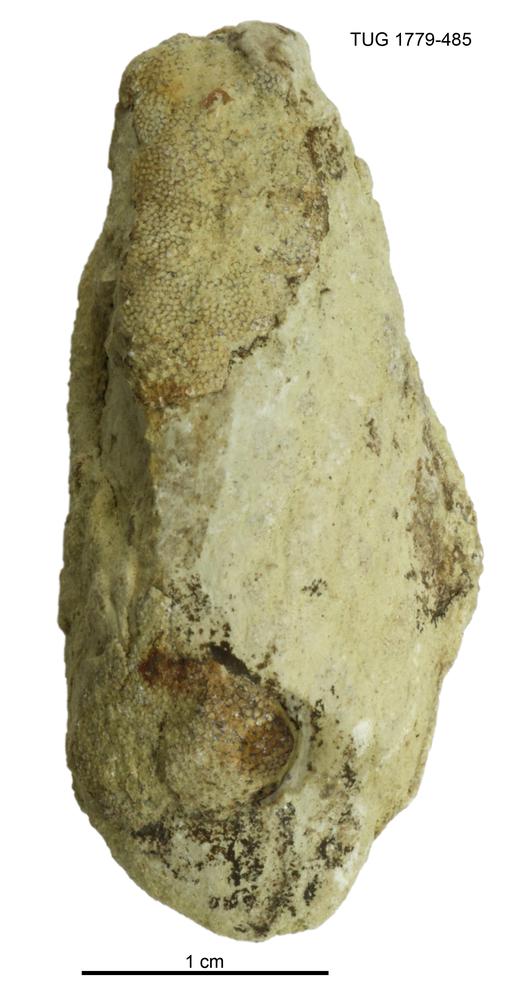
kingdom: Animalia
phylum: Mollusca
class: Bivalvia
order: Modiomorphida
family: Modiomorphidae
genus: Modiolopsis
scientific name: Modiolopsis
